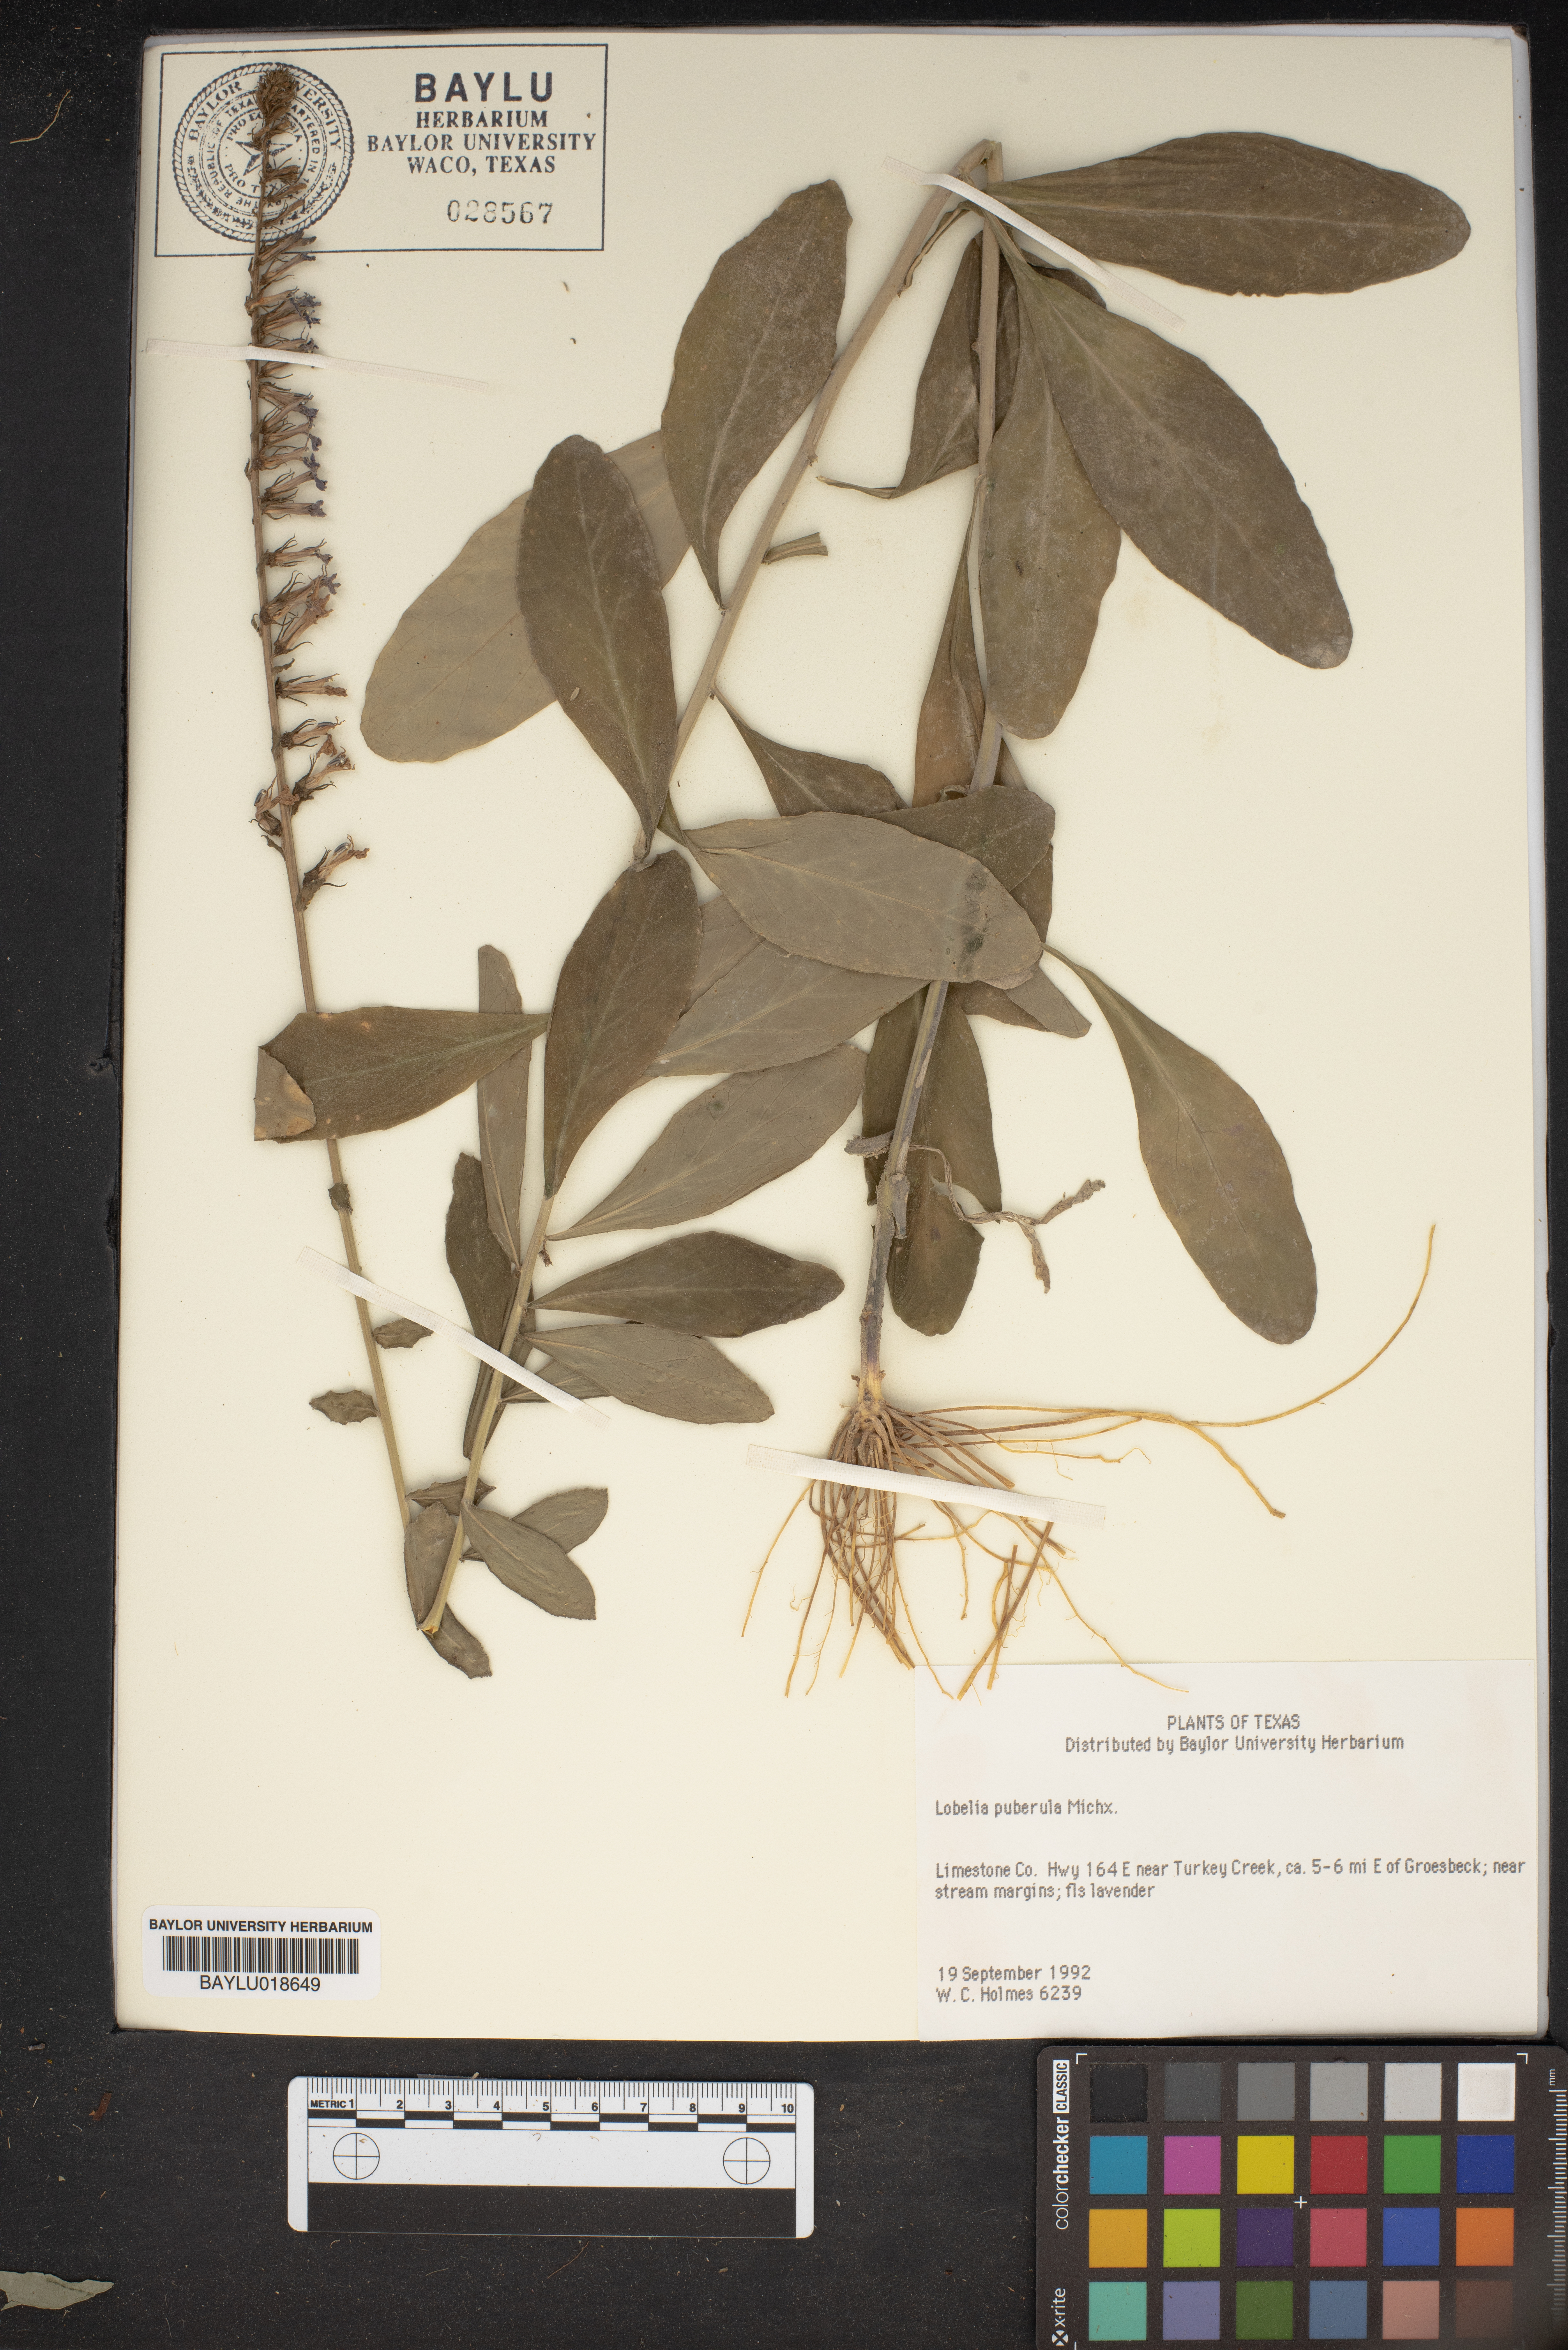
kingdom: Plantae
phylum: Tracheophyta
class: Magnoliopsida
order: Asterales
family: Campanulaceae
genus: Lobelia
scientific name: Lobelia puberula
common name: Purple dewdrop
